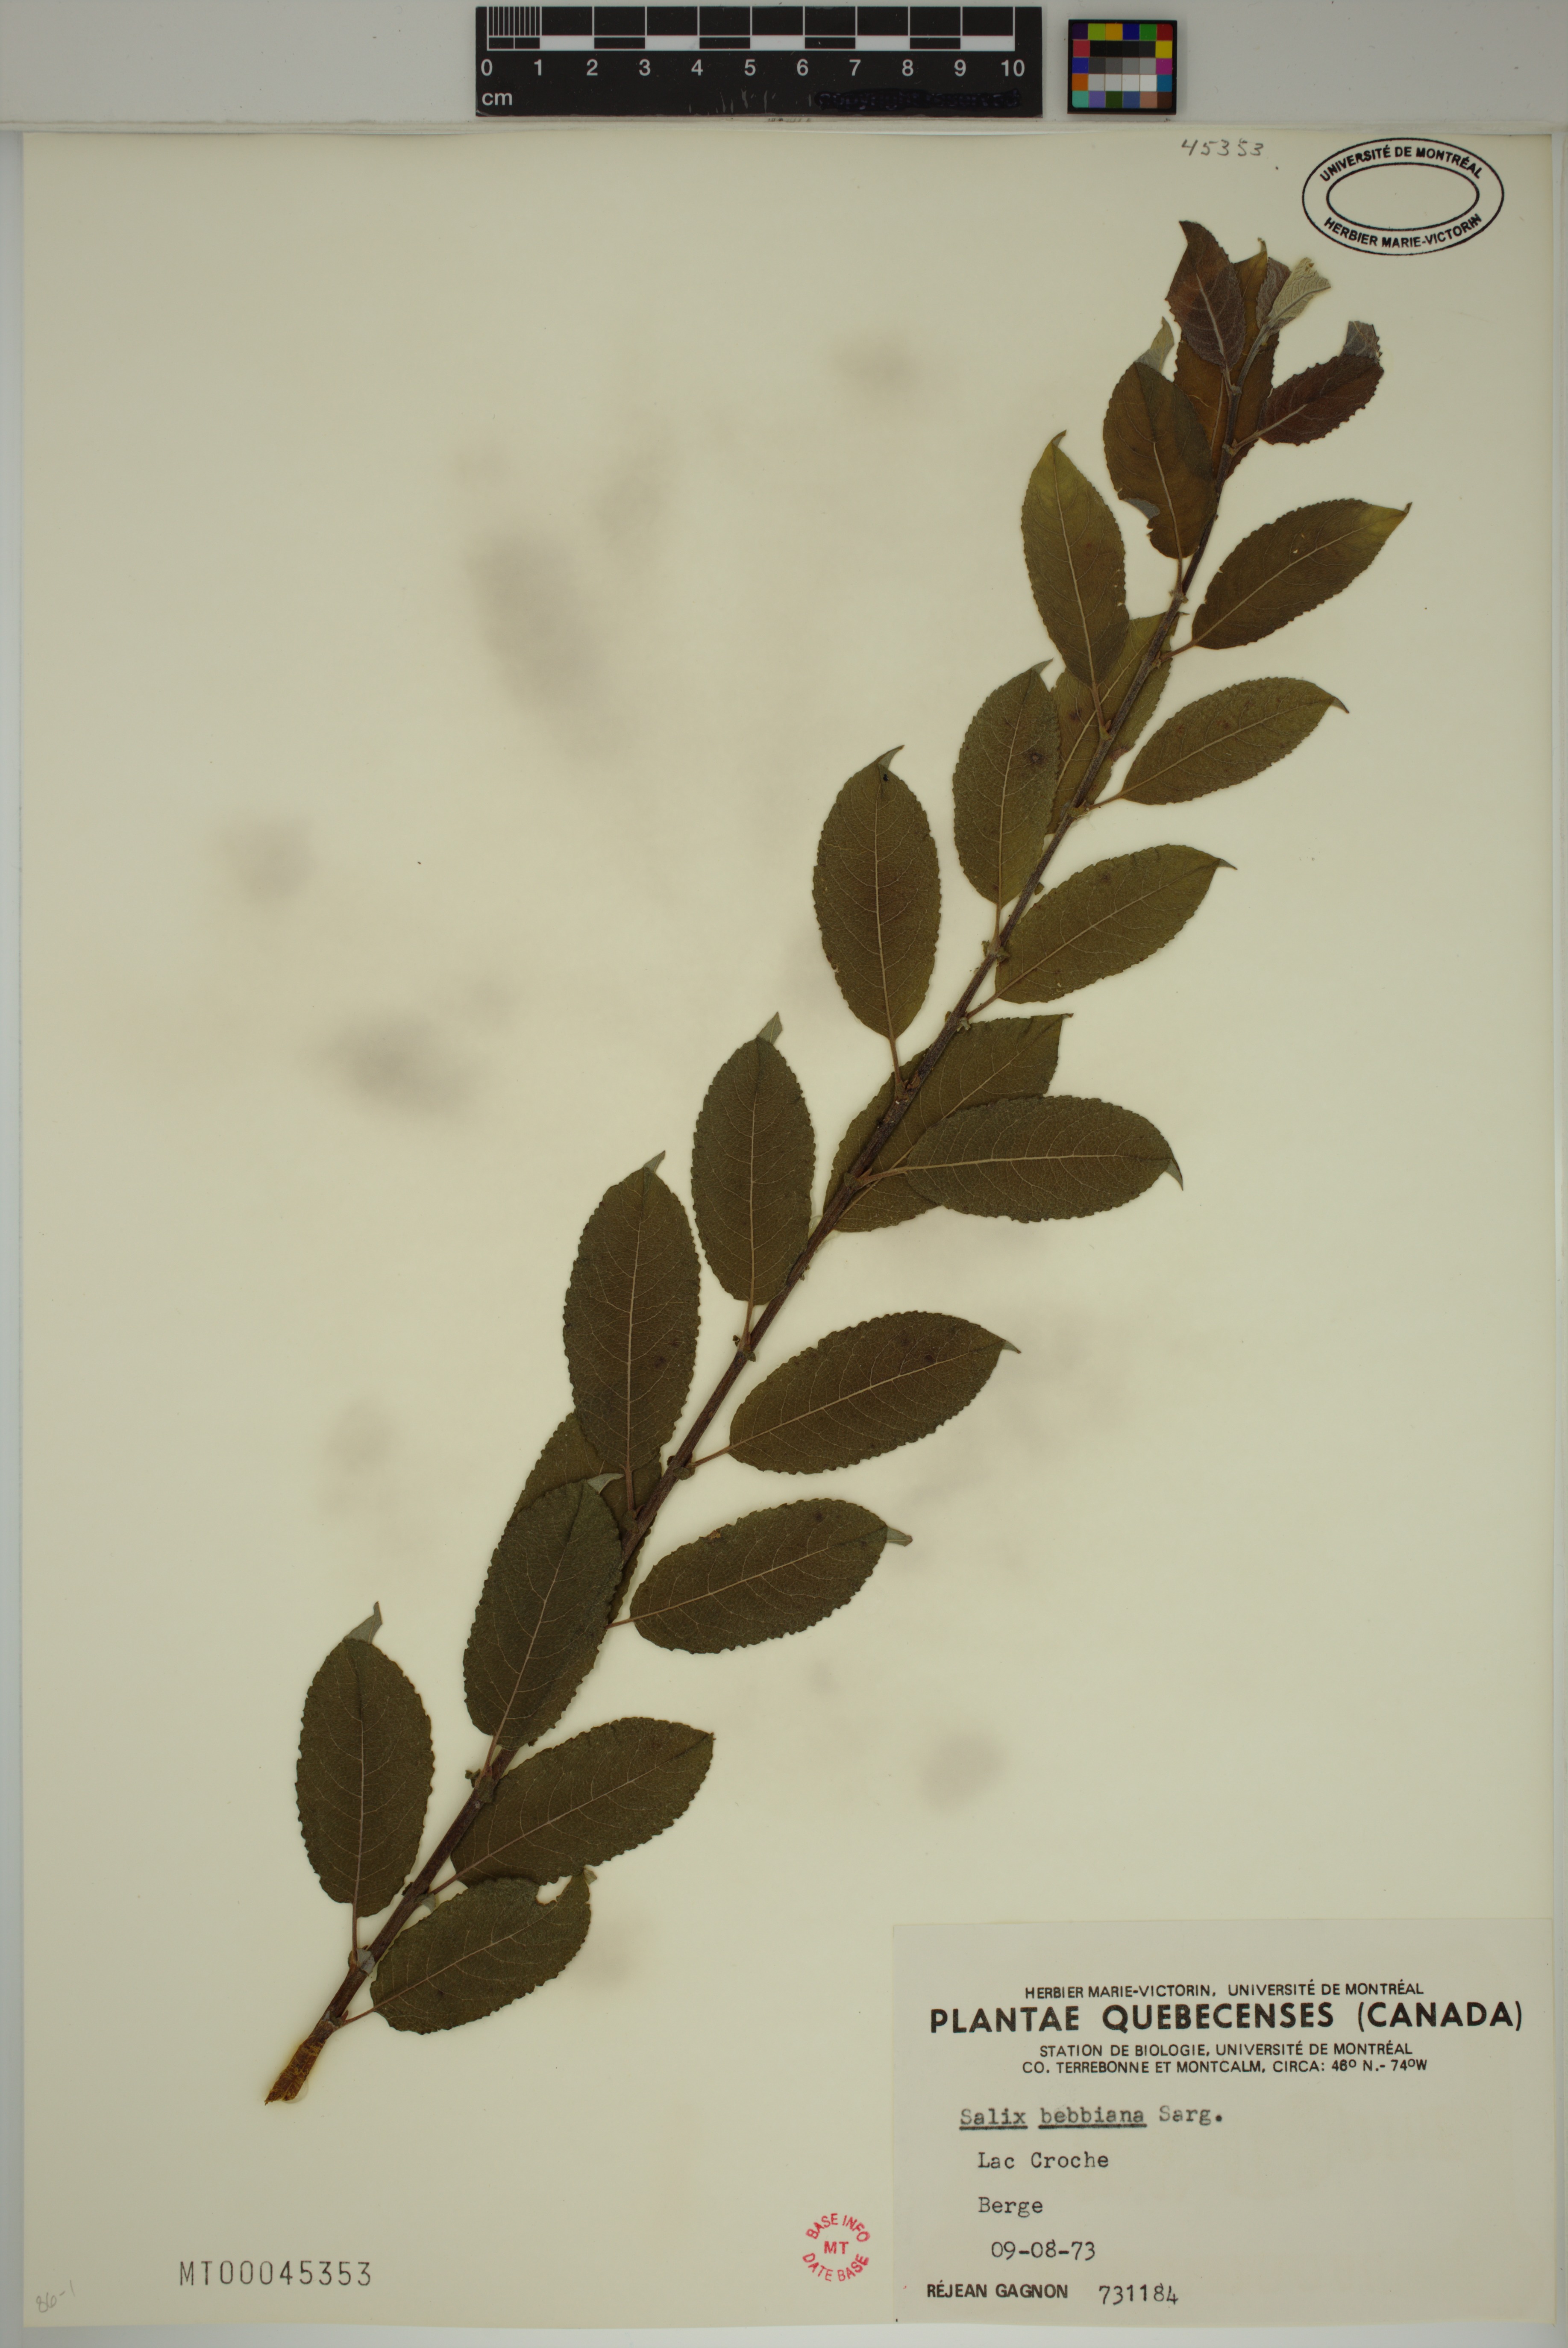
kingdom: Plantae
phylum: Tracheophyta
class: Magnoliopsida
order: Malpighiales
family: Salicaceae
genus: Salix
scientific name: Salix bebbiana
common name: Bebb's willow
